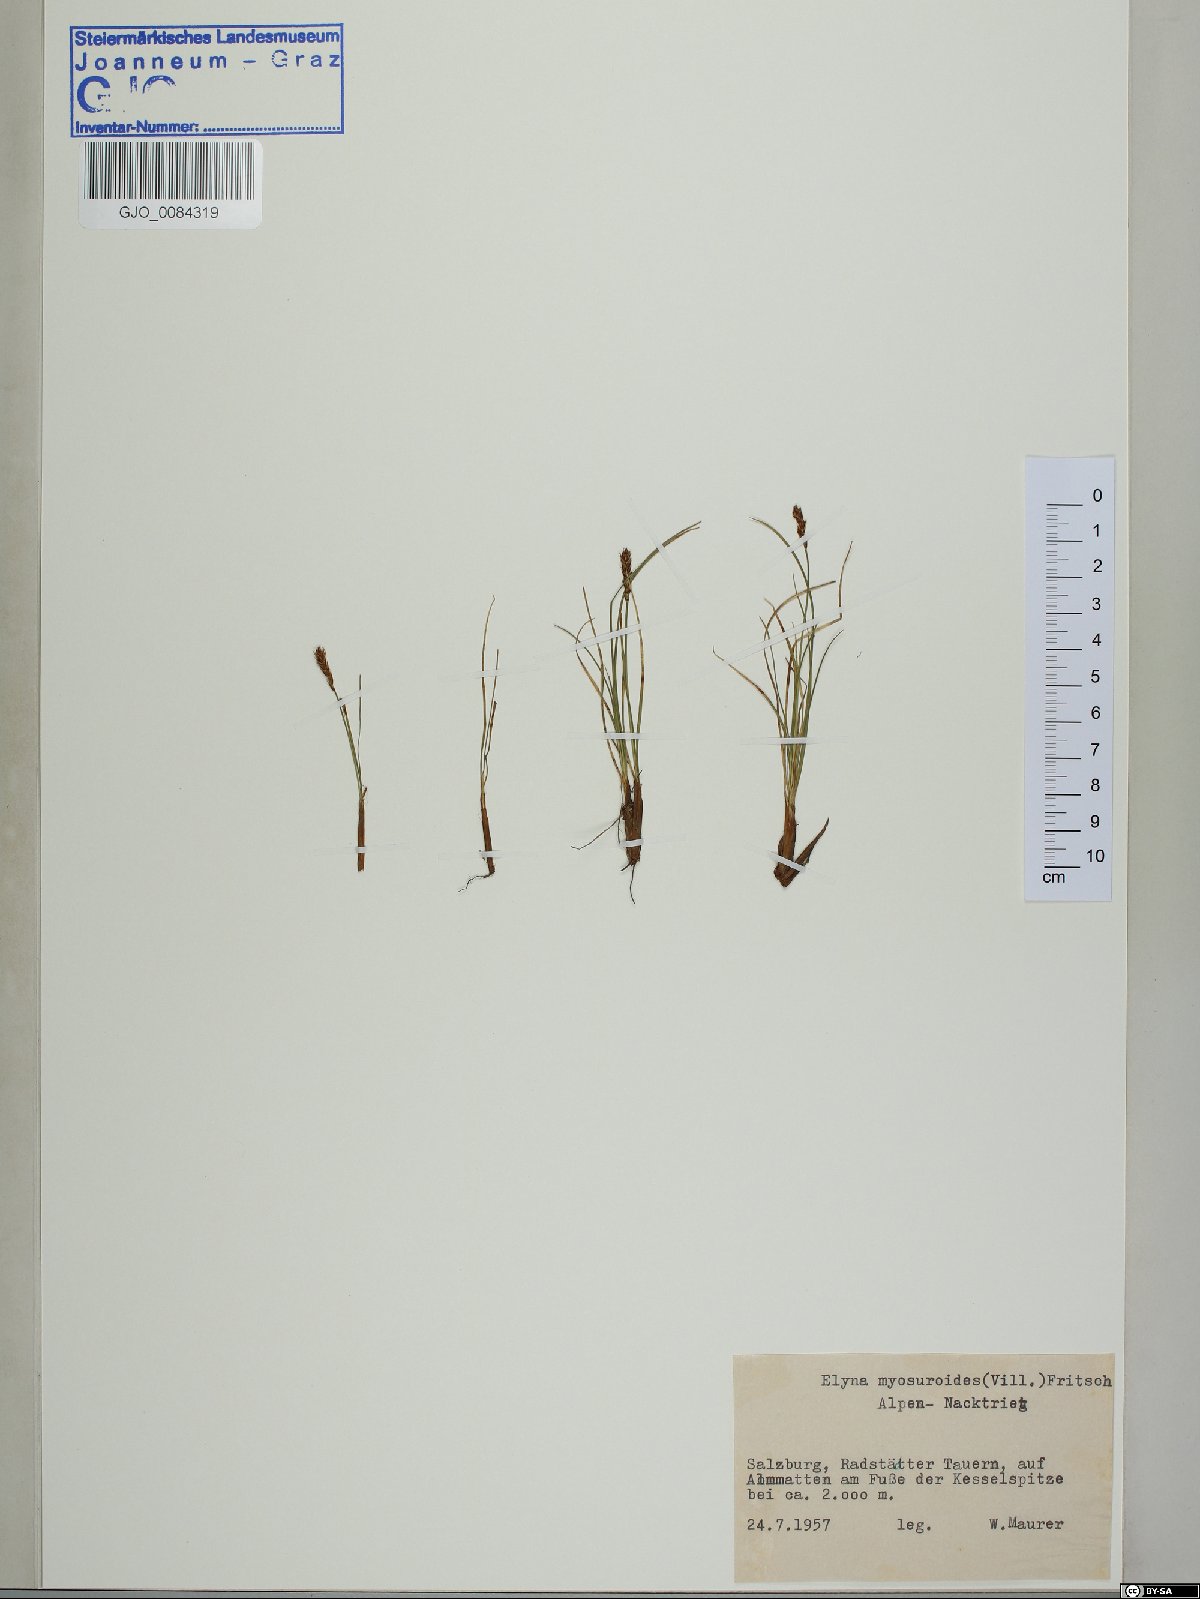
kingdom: Plantae
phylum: Tracheophyta
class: Liliopsida
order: Poales
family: Cyperaceae
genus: Carex
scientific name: Carex myosuroides
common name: Bellard's bog sedge
